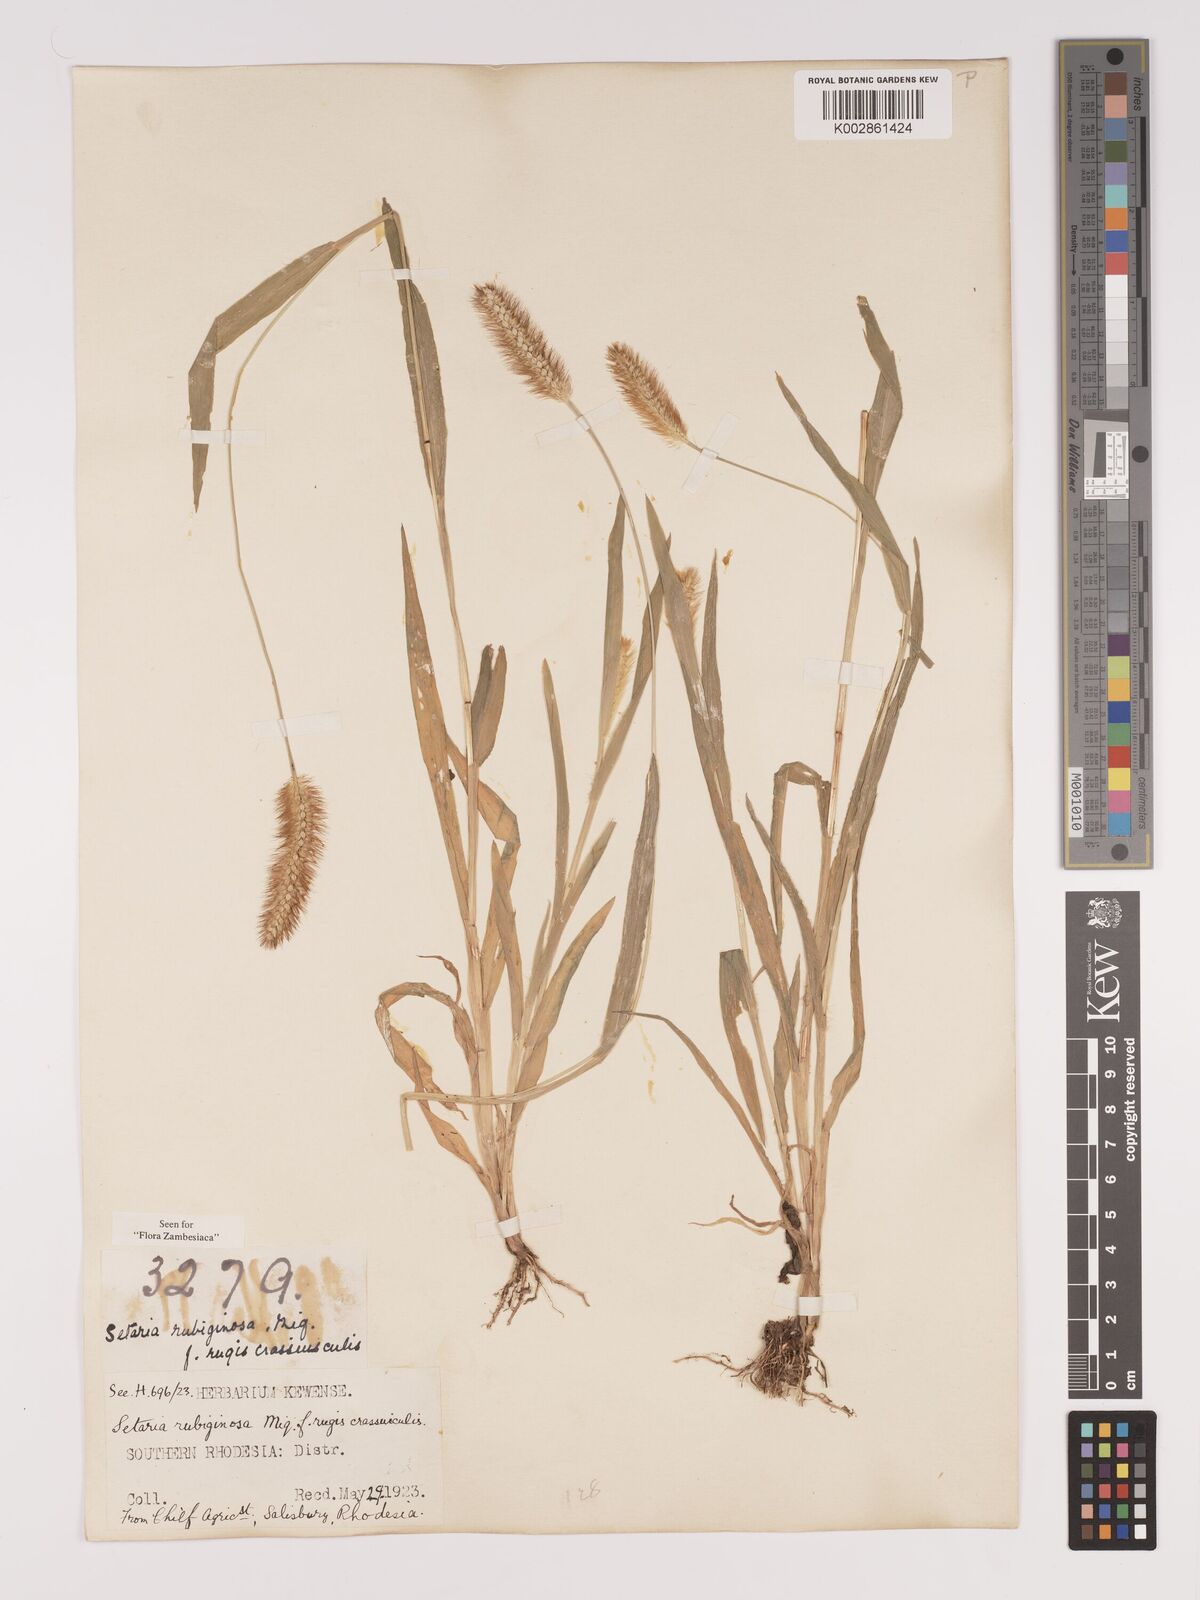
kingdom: Plantae
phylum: Tracheophyta
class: Liliopsida
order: Poales
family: Poaceae
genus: Setaria
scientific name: Setaria pumila
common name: Yellow bristle-grass
